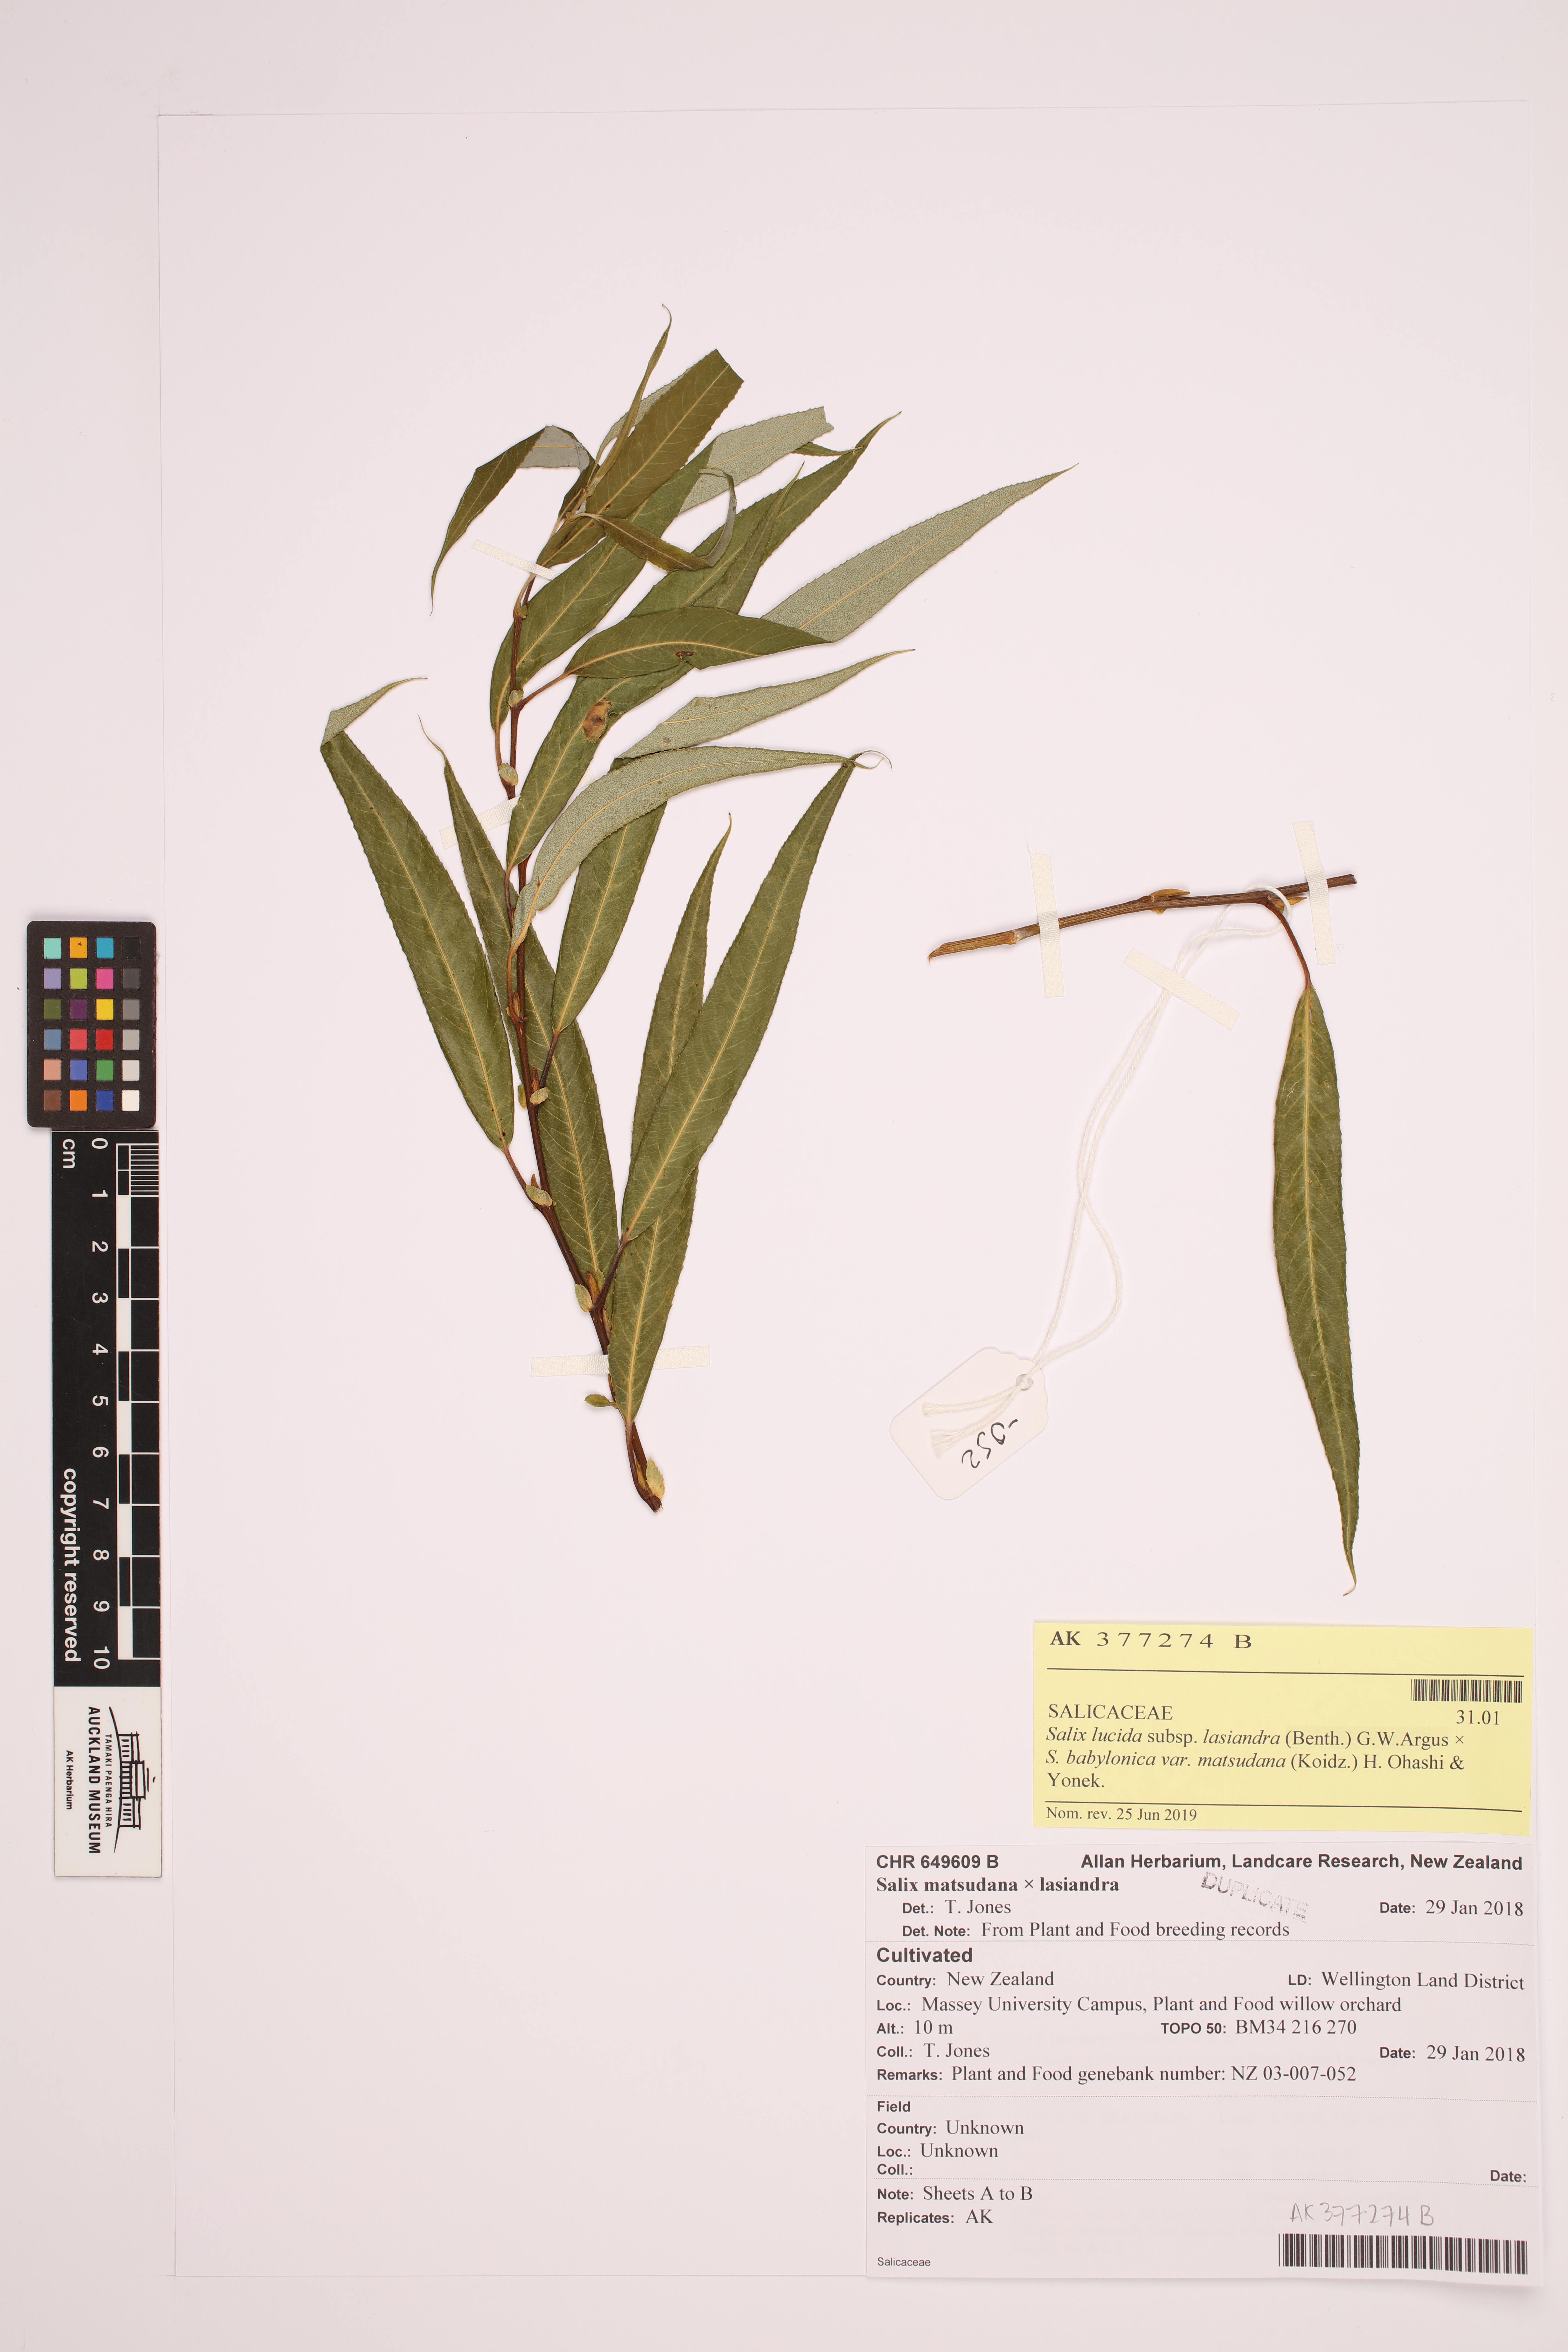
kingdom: Plantae
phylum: Tracheophyta
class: Magnoliopsida
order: Malpighiales
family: Salicaceae
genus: Salix
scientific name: Salix
